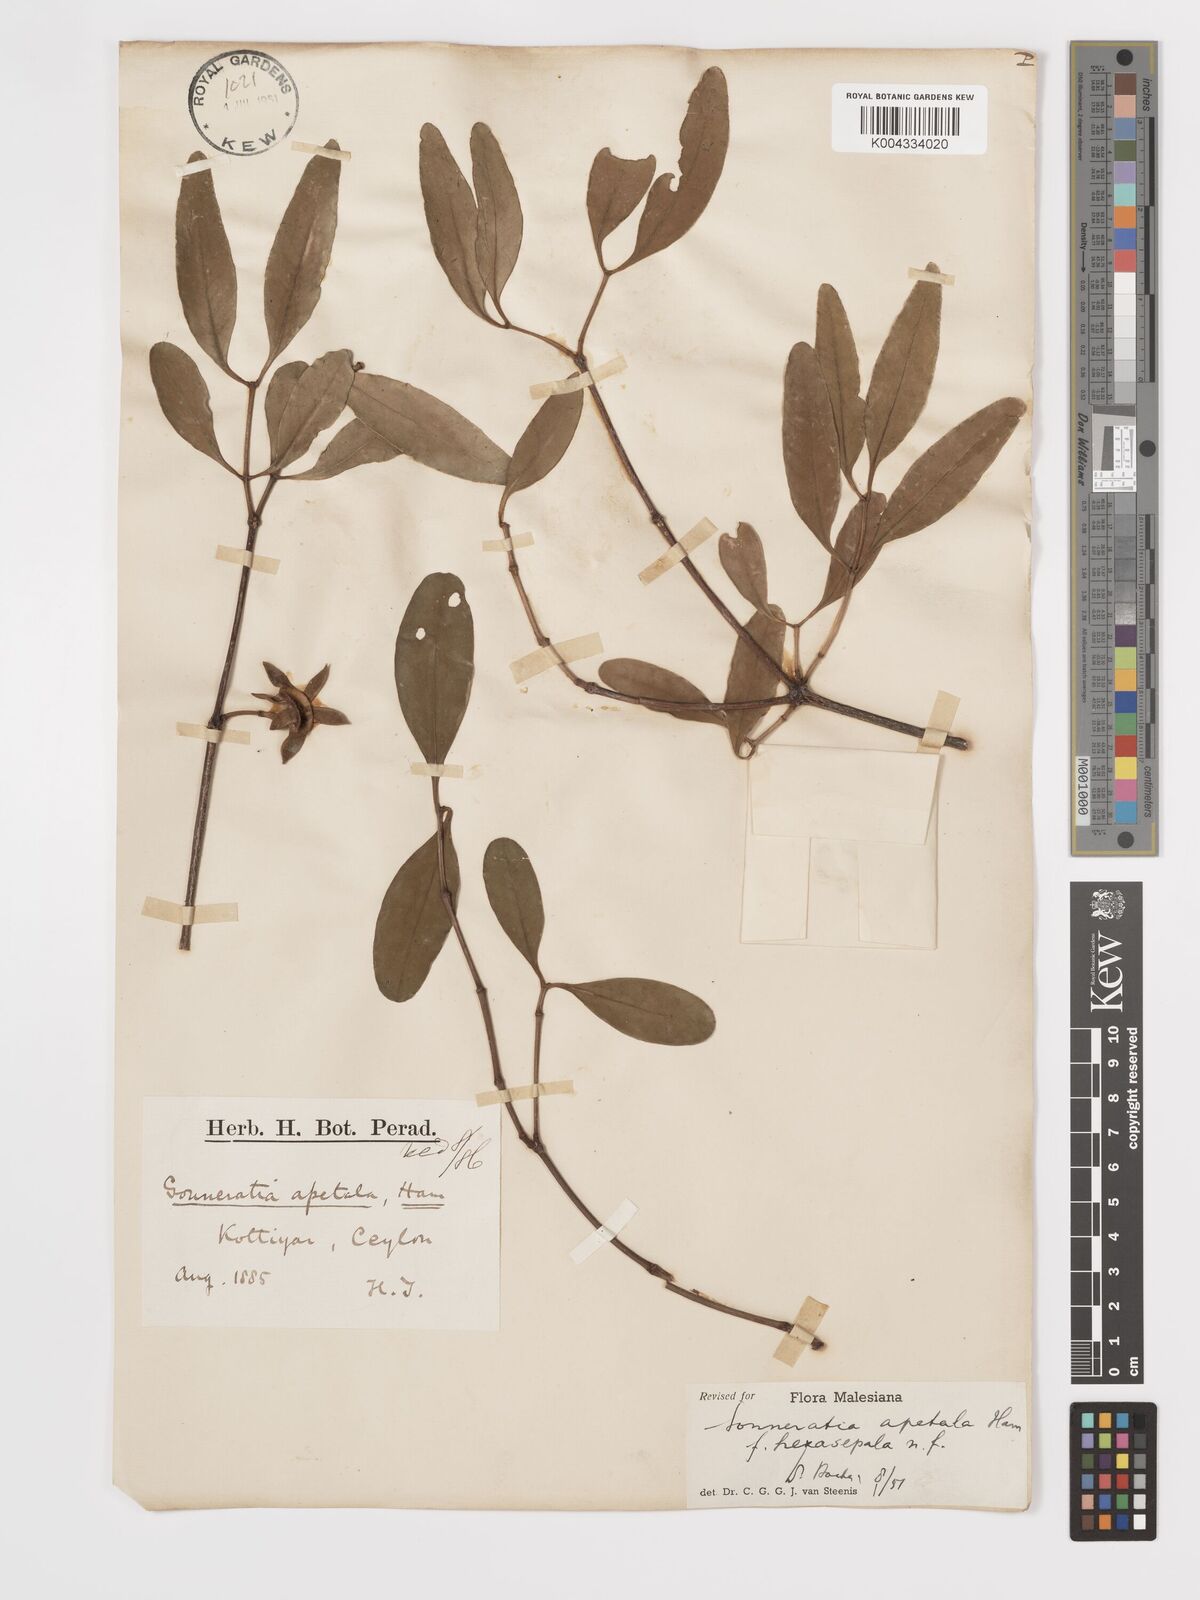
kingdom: Plantae
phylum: Tracheophyta
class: Magnoliopsida
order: Myrtales
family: Lythraceae
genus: Sonneratia
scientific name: Sonneratia apetala
